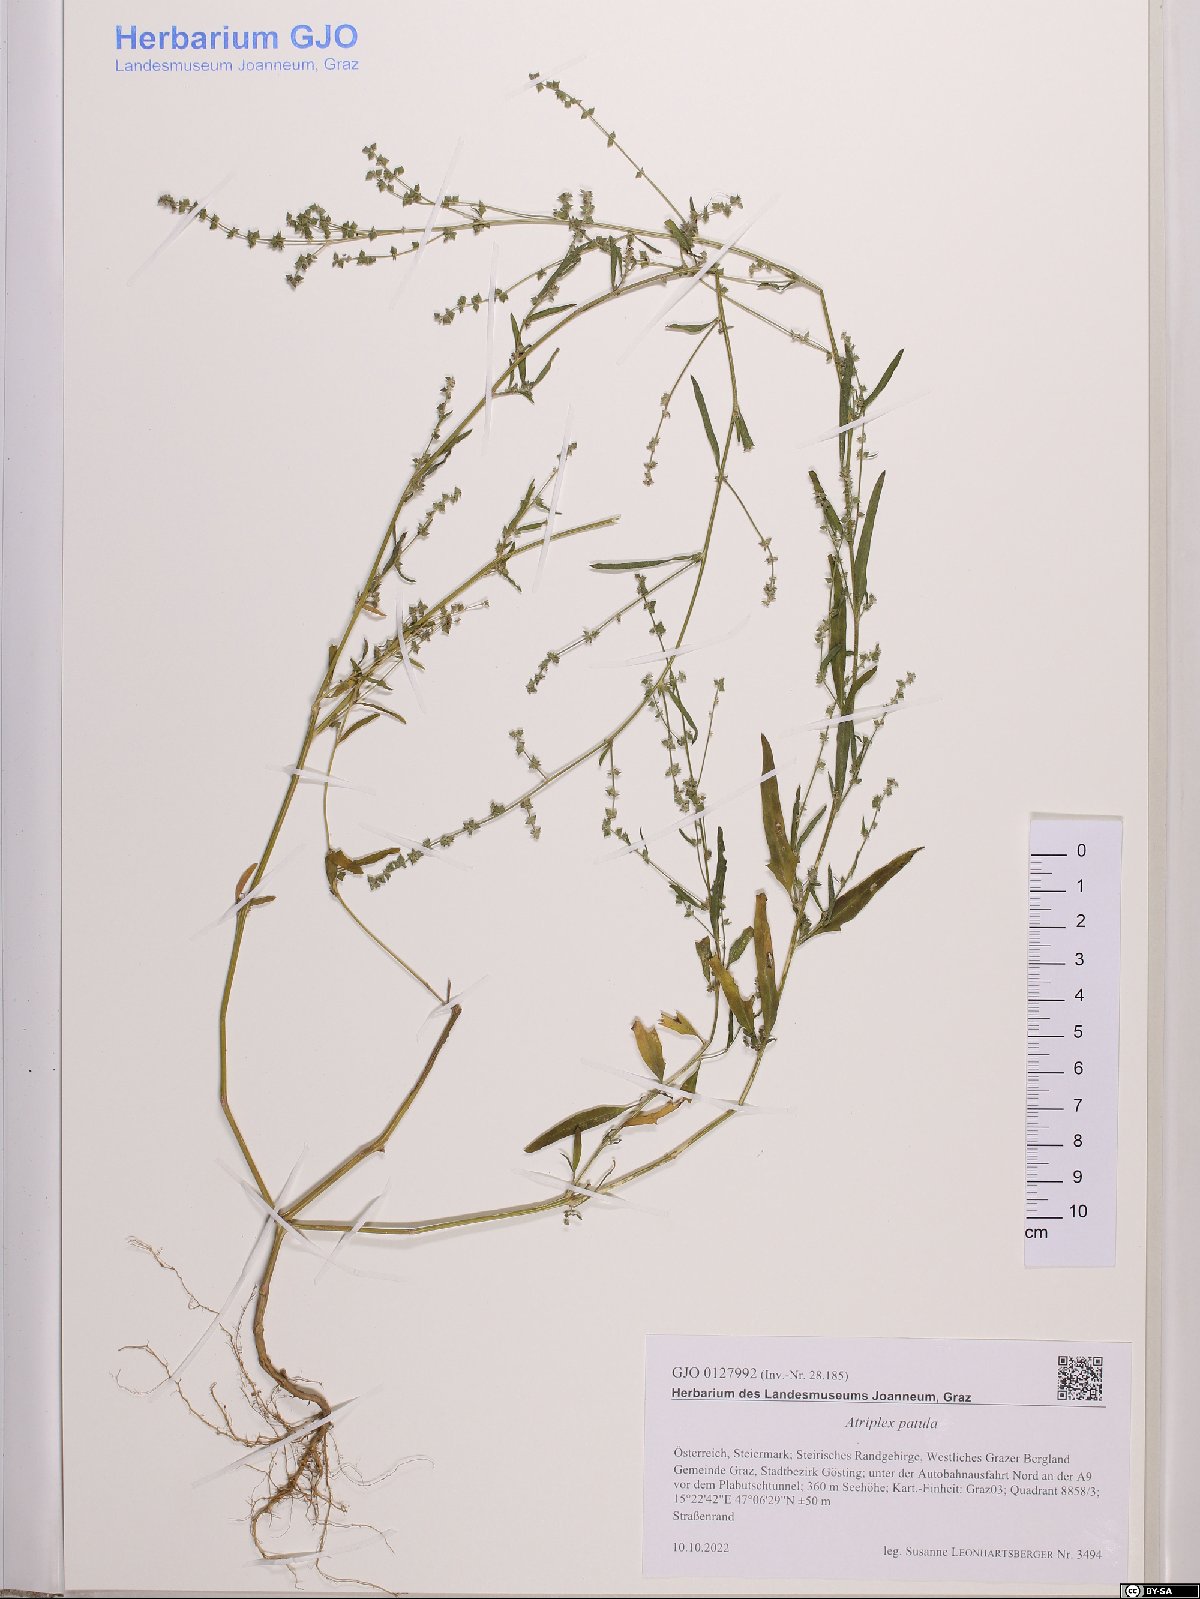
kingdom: Plantae
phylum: Tracheophyta
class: Magnoliopsida
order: Caryophyllales
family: Amaranthaceae
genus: Atriplex
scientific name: Atriplex patula
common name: Common orache
